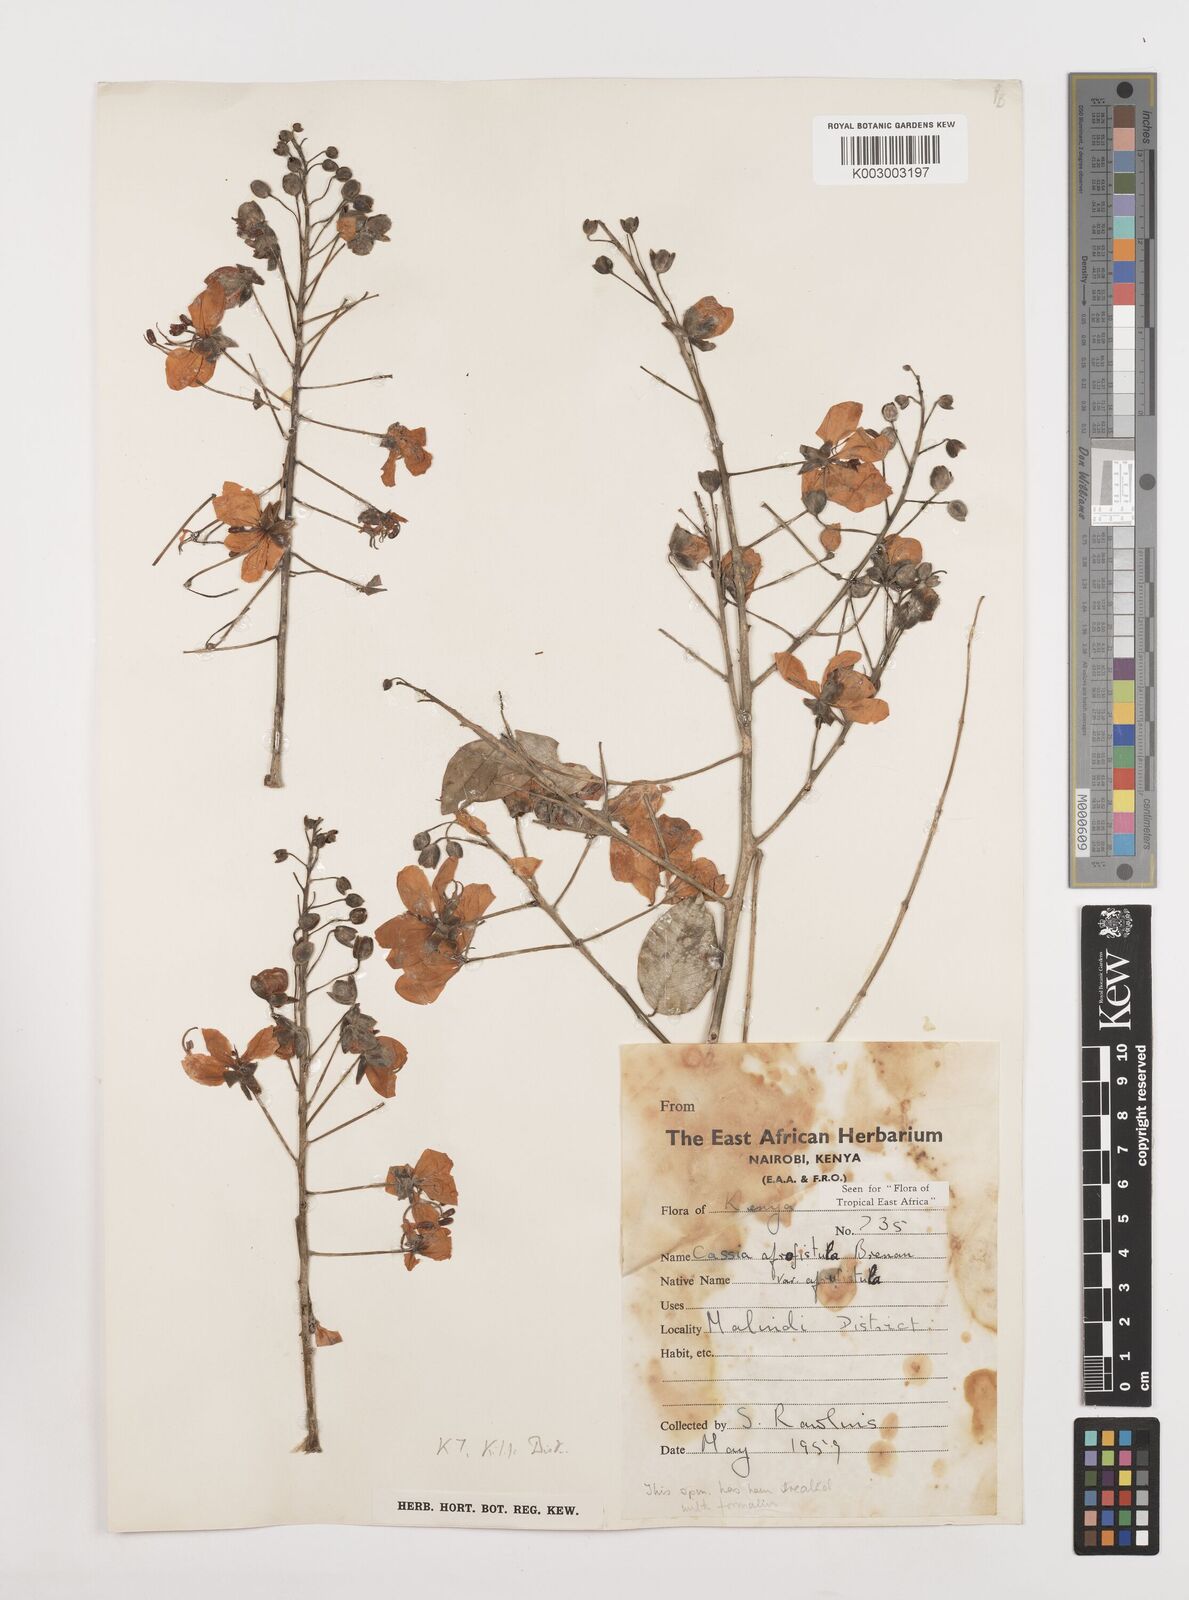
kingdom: Plantae
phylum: Tracheophyta
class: Magnoliopsida
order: Fabales
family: Fabaceae
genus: Cassia
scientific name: Cassia afrofistula
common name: Kenyan shower
